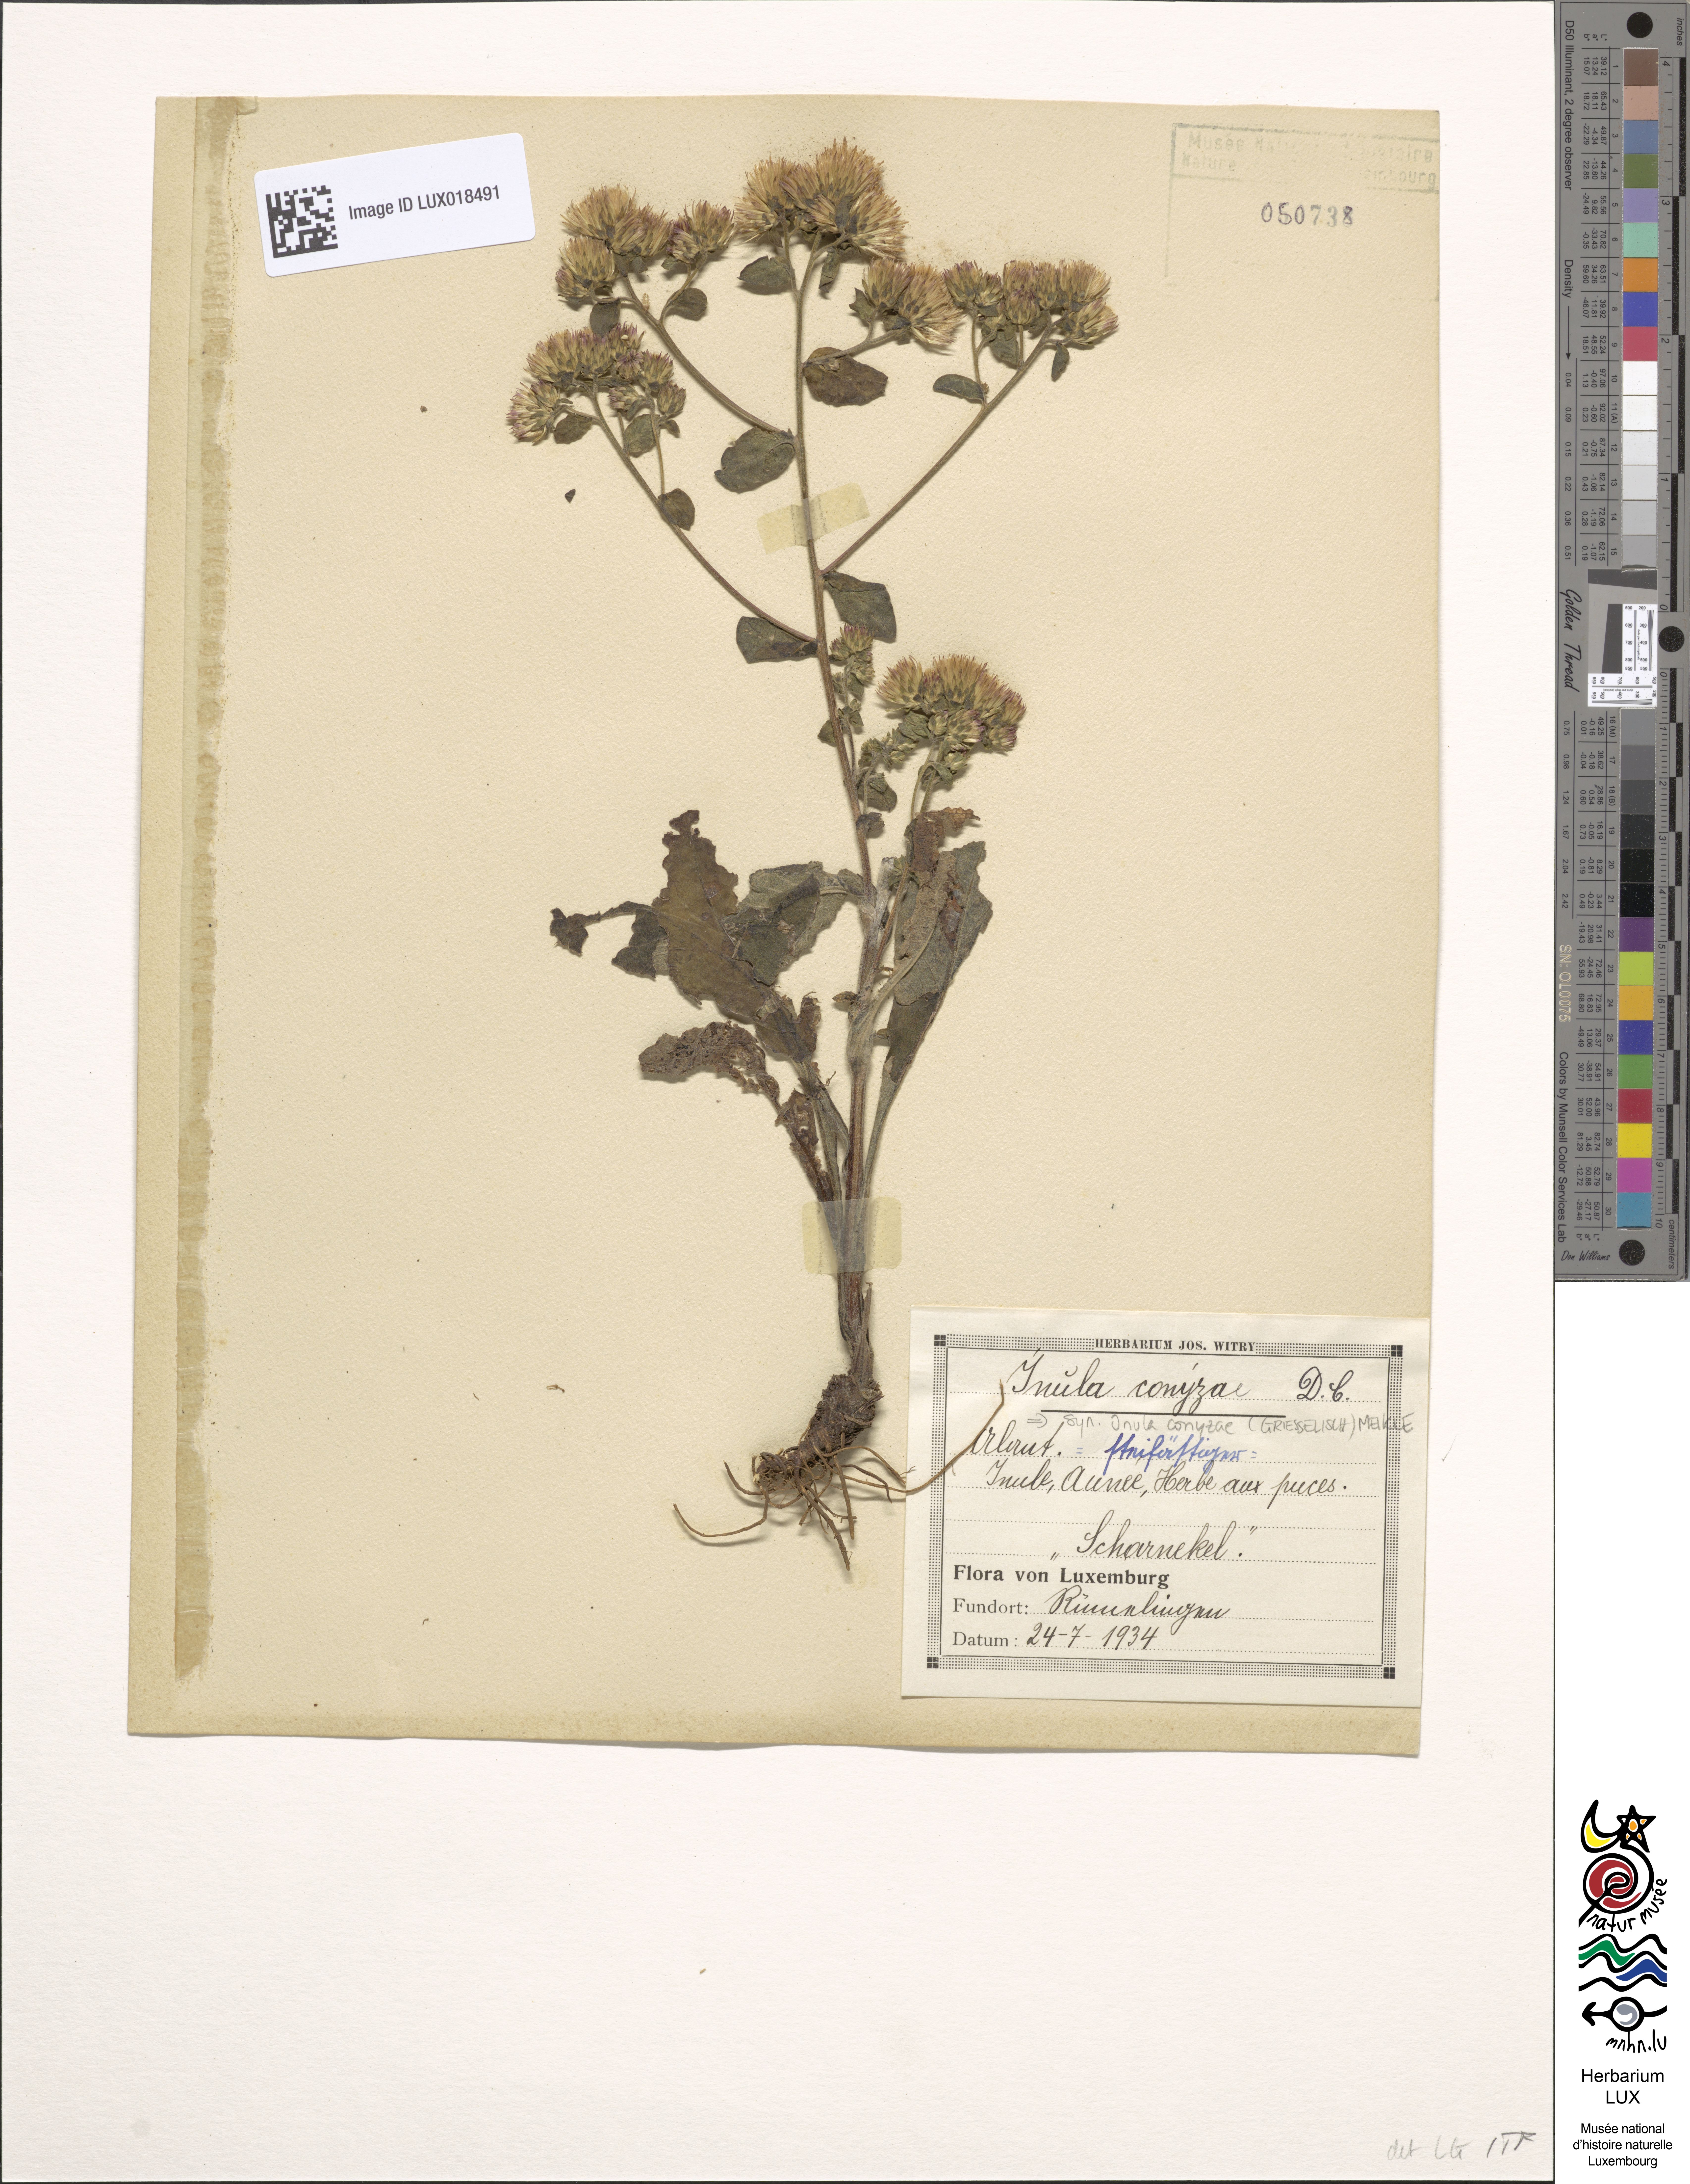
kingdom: Plantae
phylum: Tracheophyta
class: Magnoliopsida
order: Asterales
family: Asteraceae
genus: Pentanema
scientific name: Pentanema squarrosum
